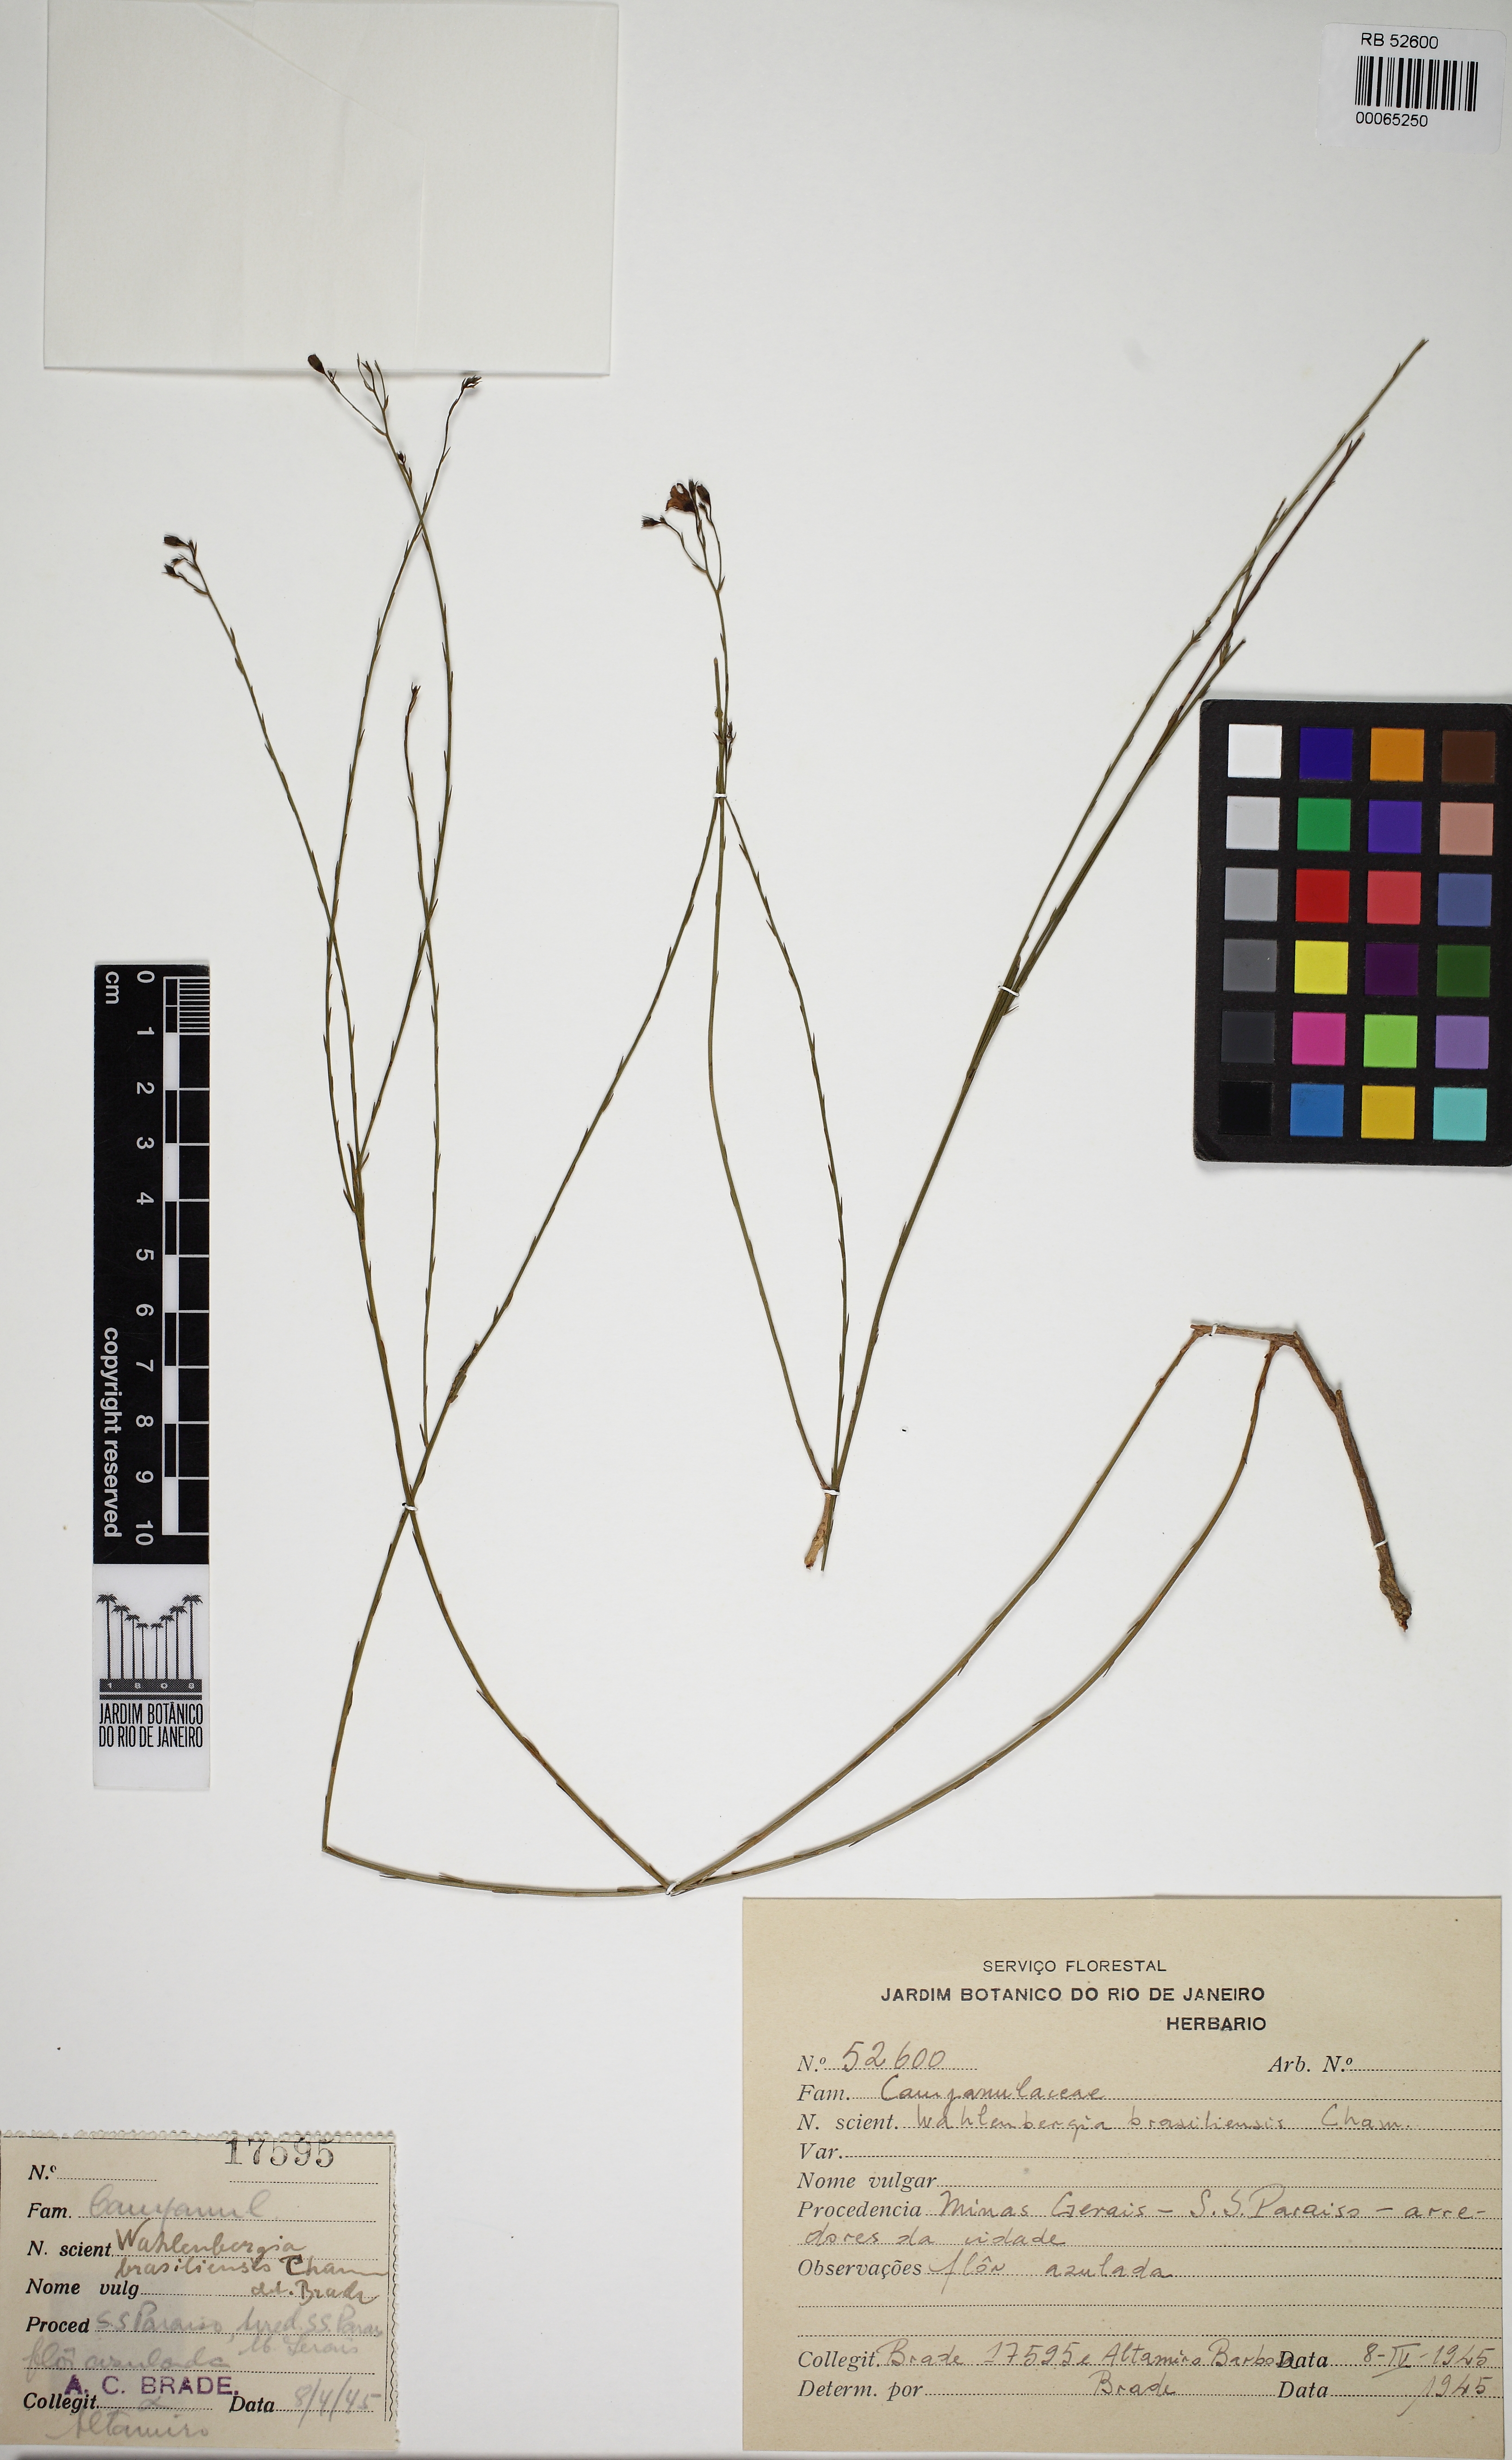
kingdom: Plantae
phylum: Tracheophyta
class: Magnoliopsida
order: Asterales
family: Campanulaceae
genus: Wahlenbergia
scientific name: Wahlenbergia brasiliensis
